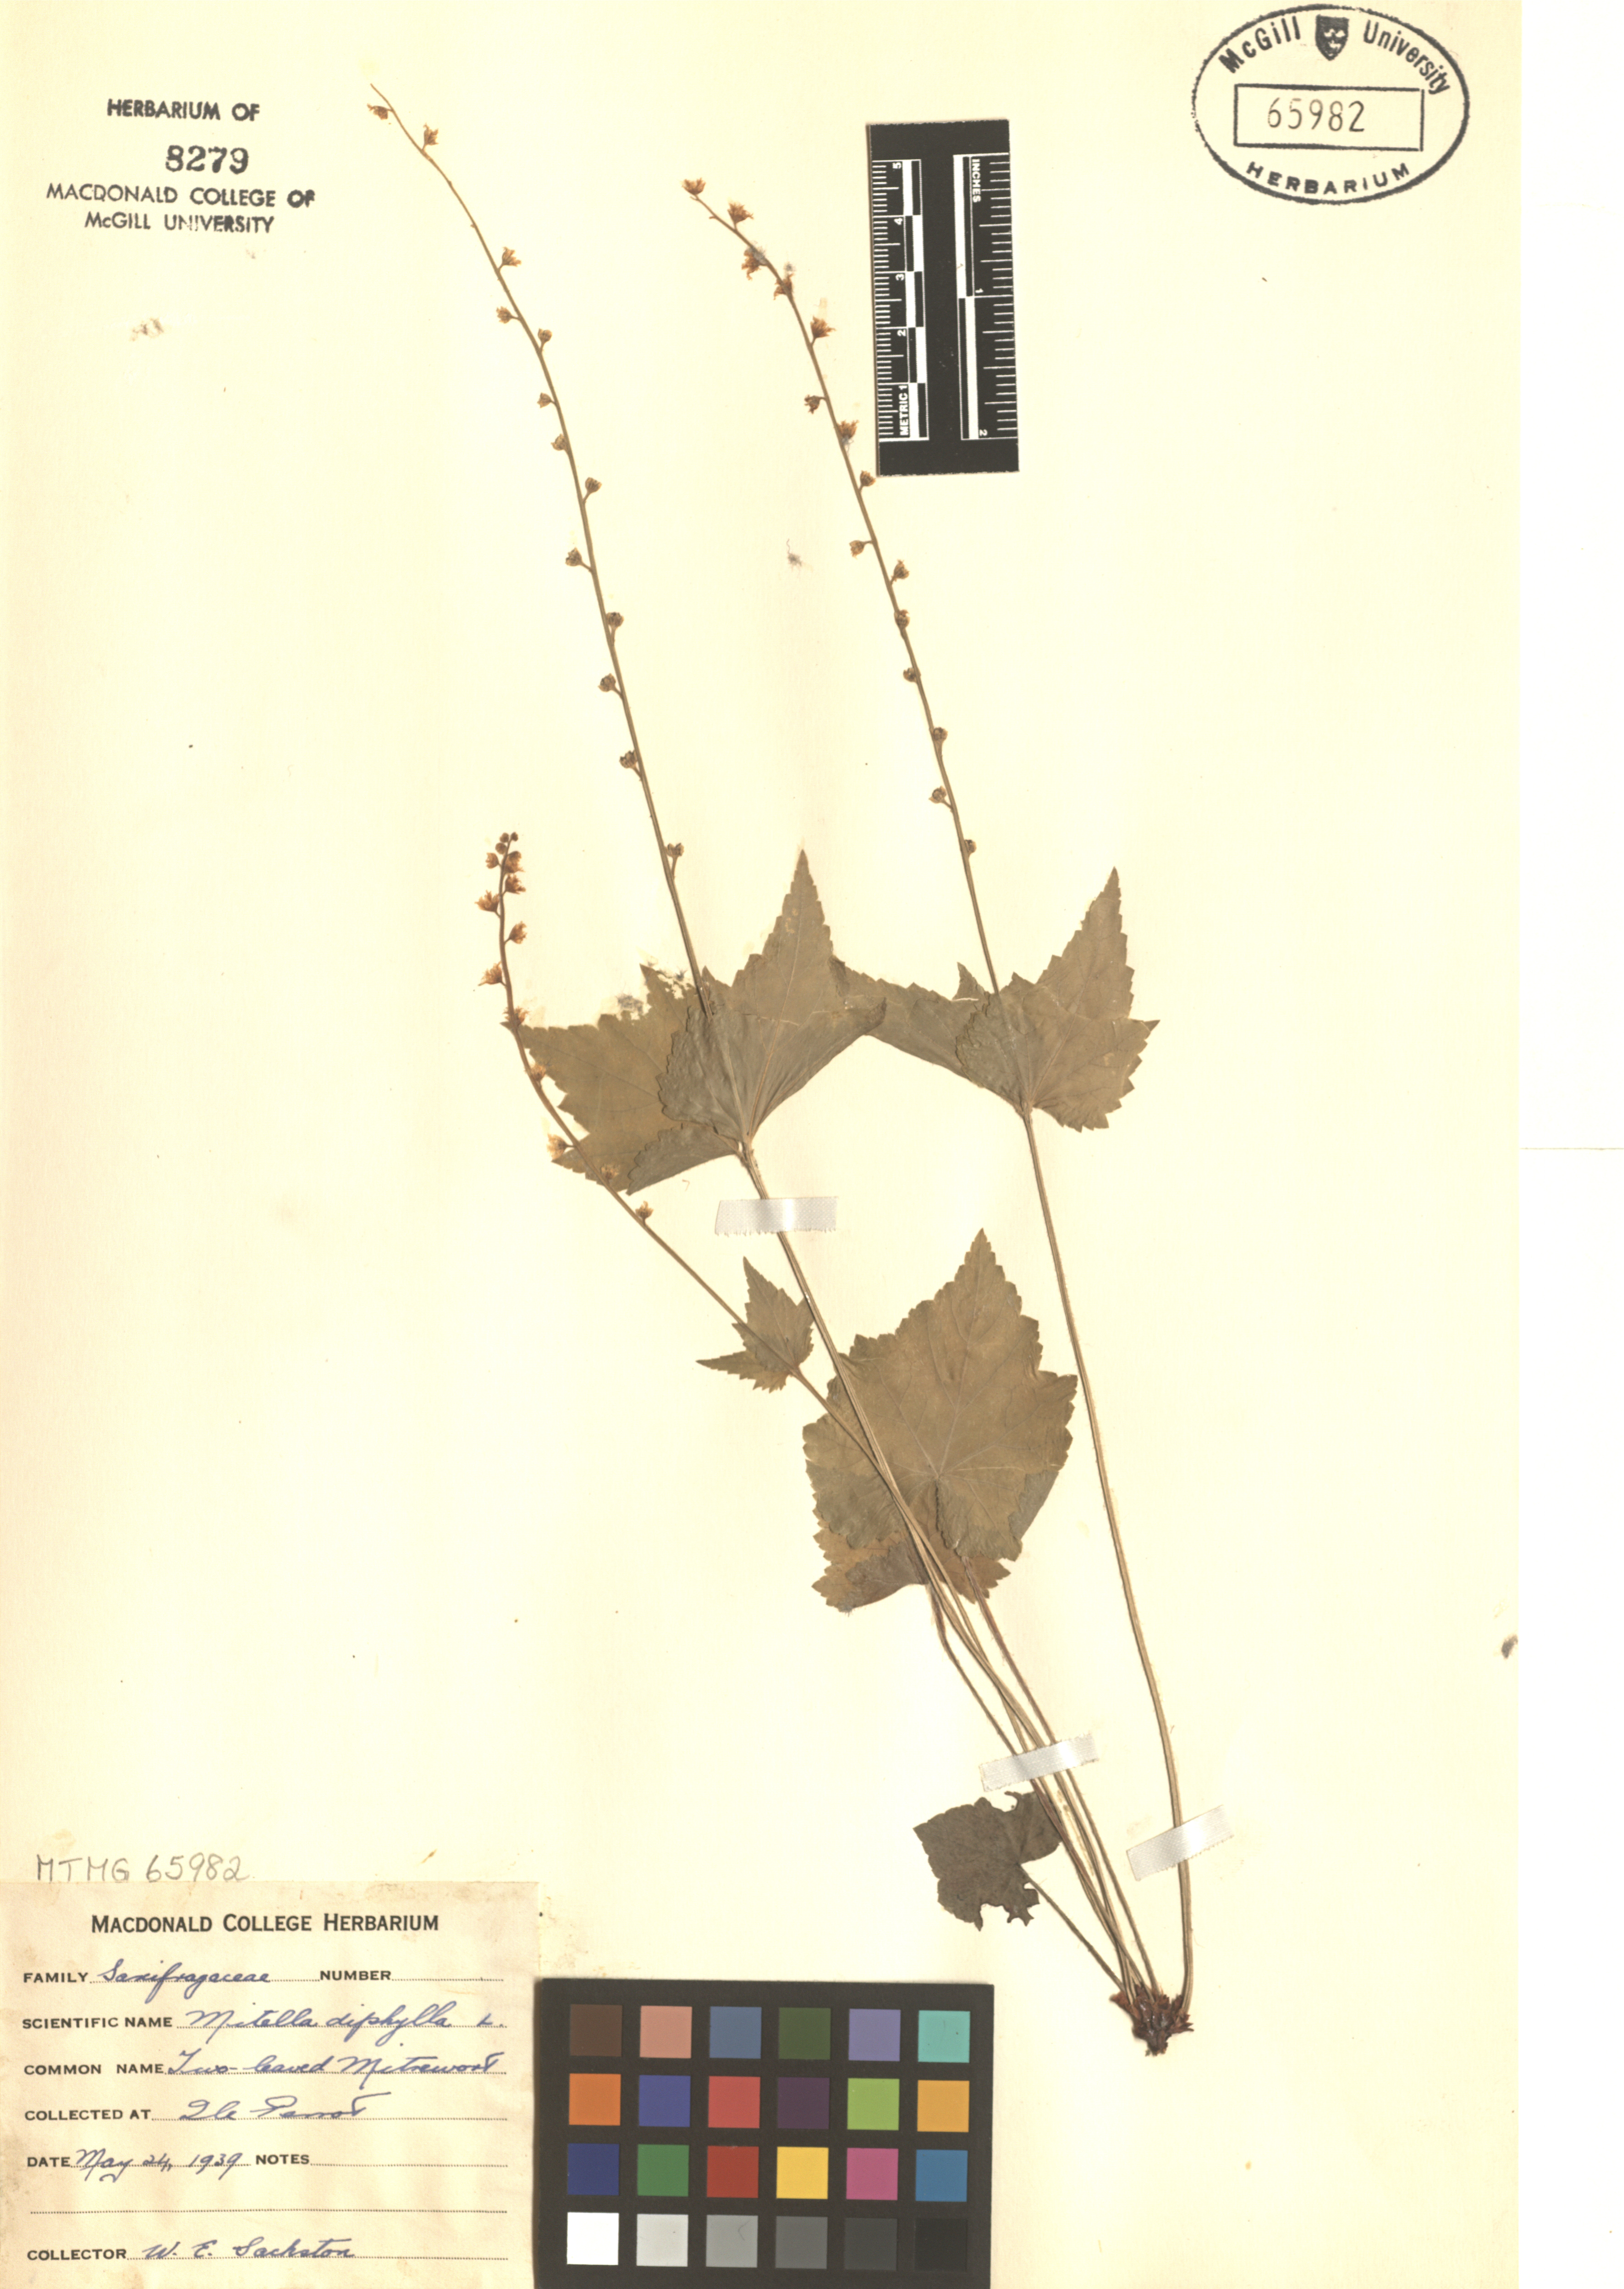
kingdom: Plantae
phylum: Tracheophyta
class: Magnoliopsida
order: Saxifragales
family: Saxifragaceae
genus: Mitella
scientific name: Mitella diphylla
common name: Coolwort
